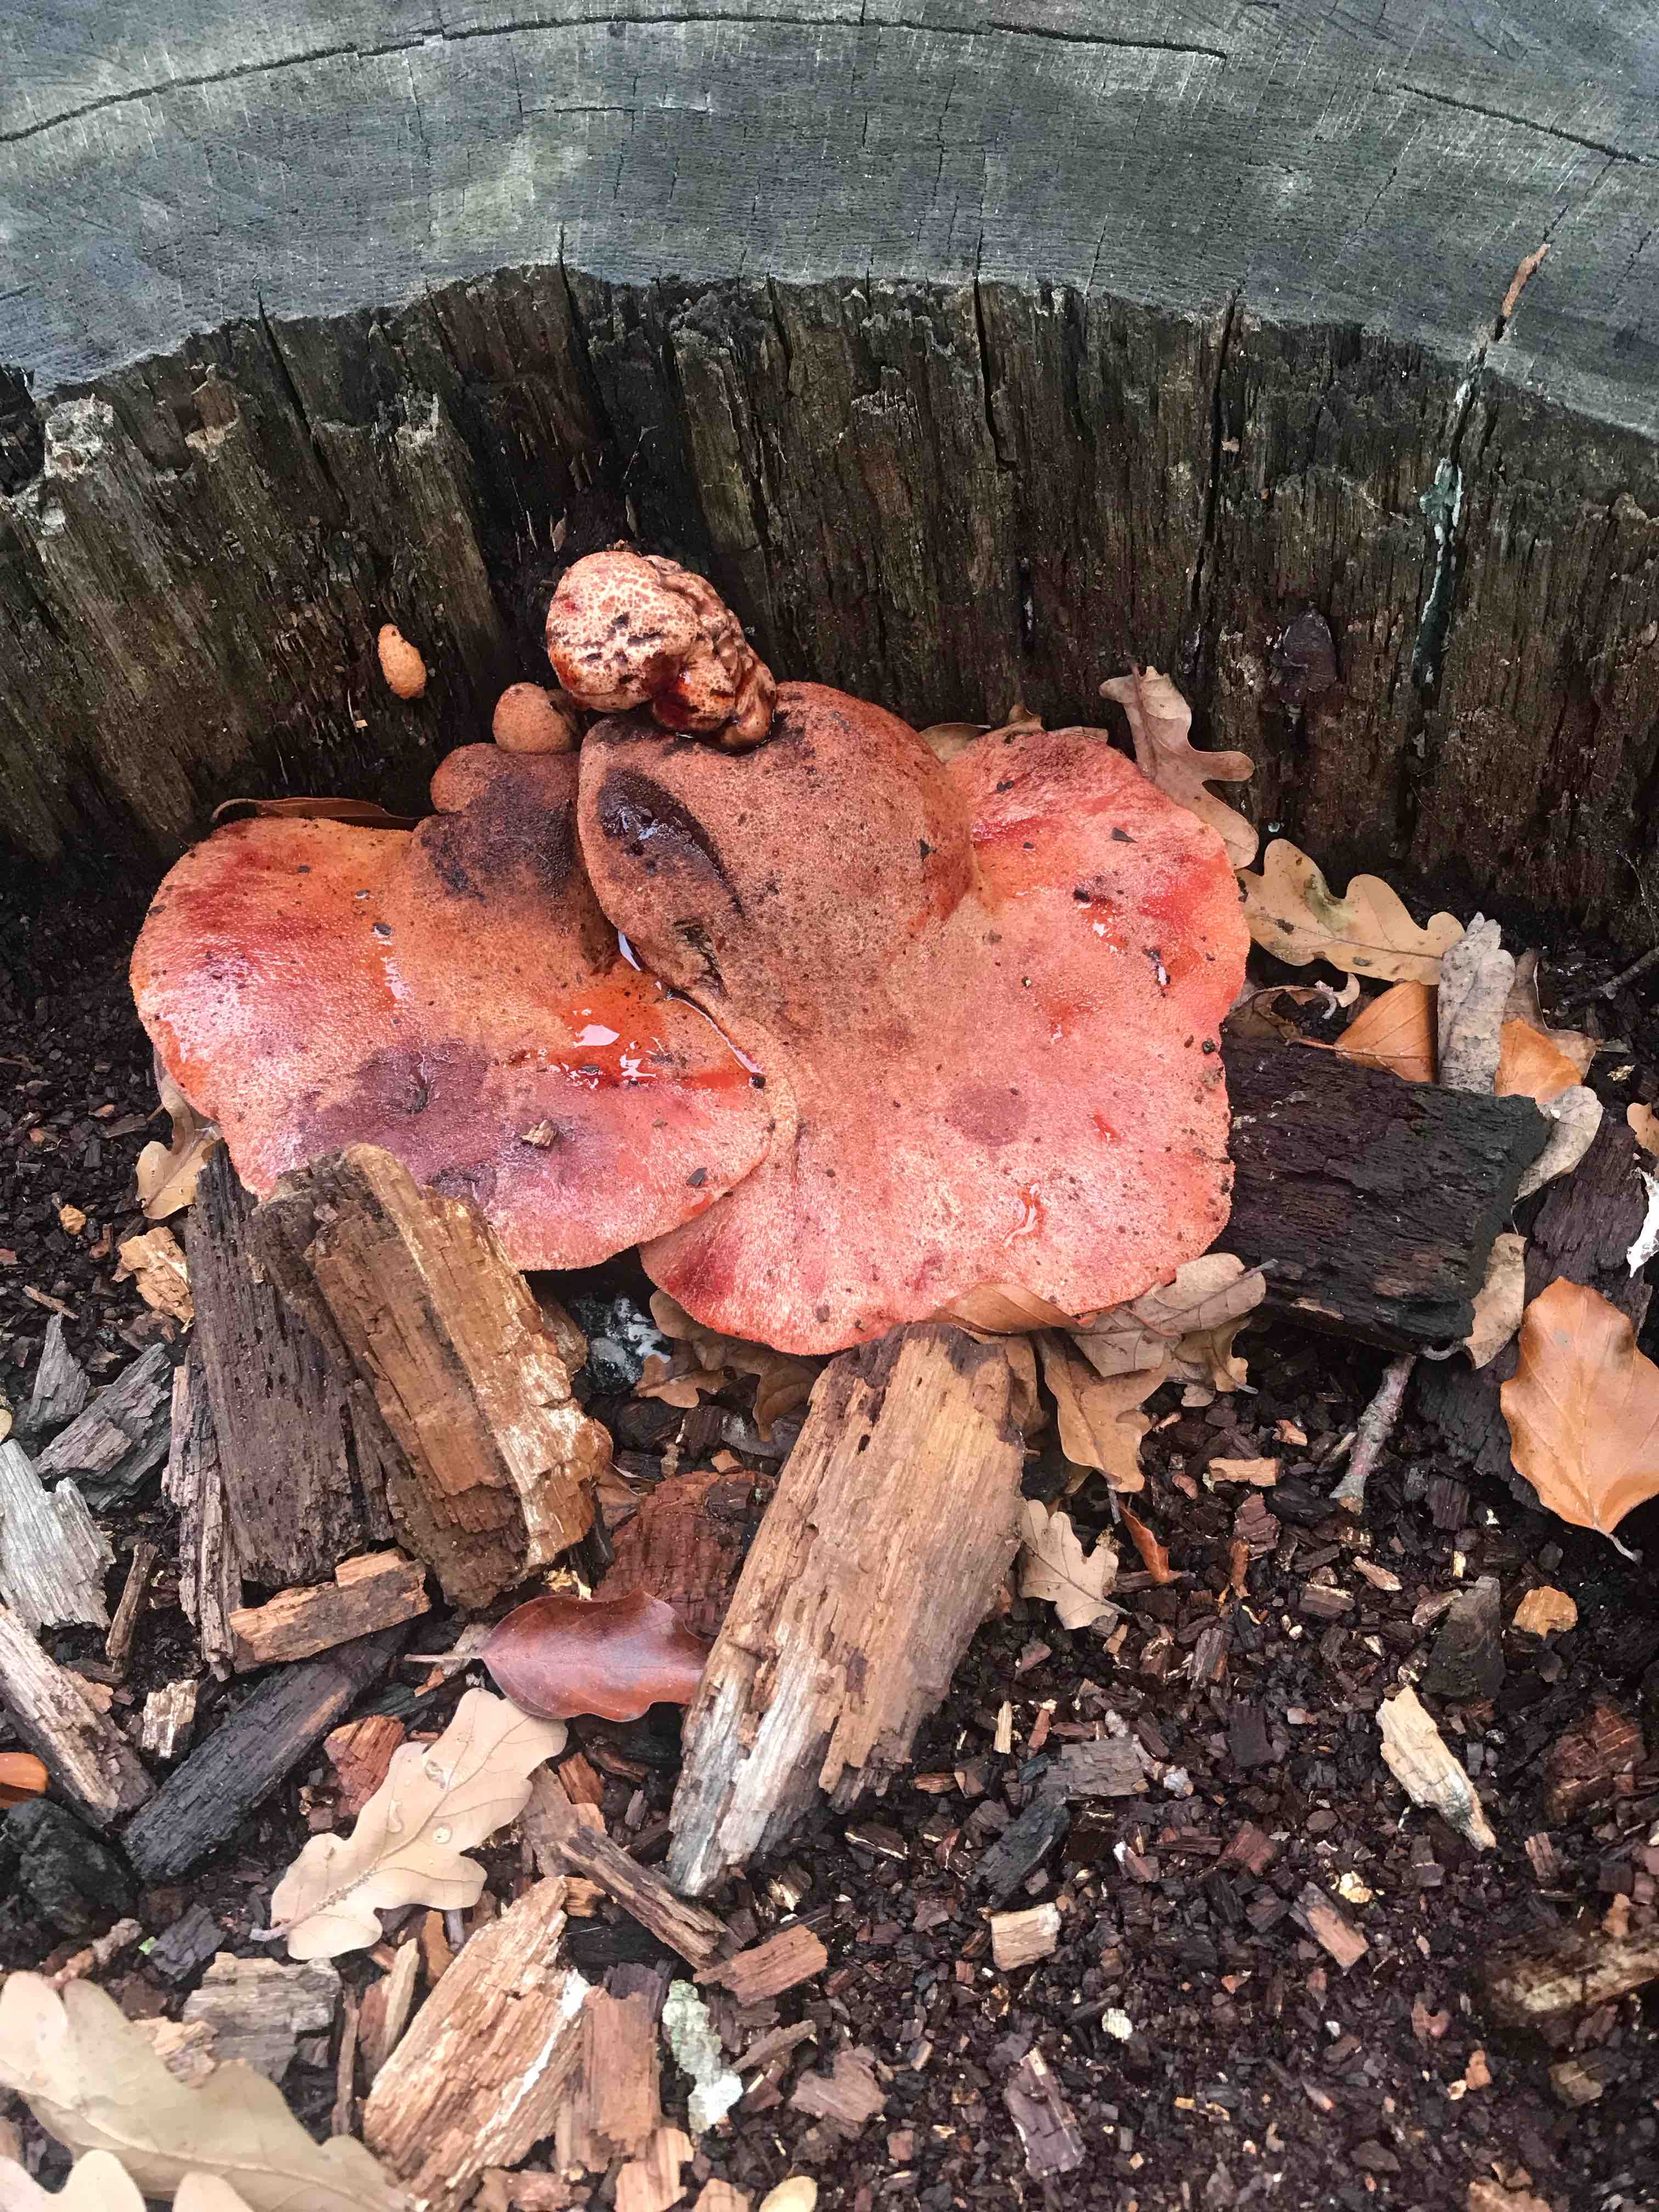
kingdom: Fungi
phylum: Basidiomycota
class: Agaricomycetes
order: Agaricales
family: Fistulinaceae
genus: Fistulina
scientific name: Fistulina hepatica
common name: oksetunge
